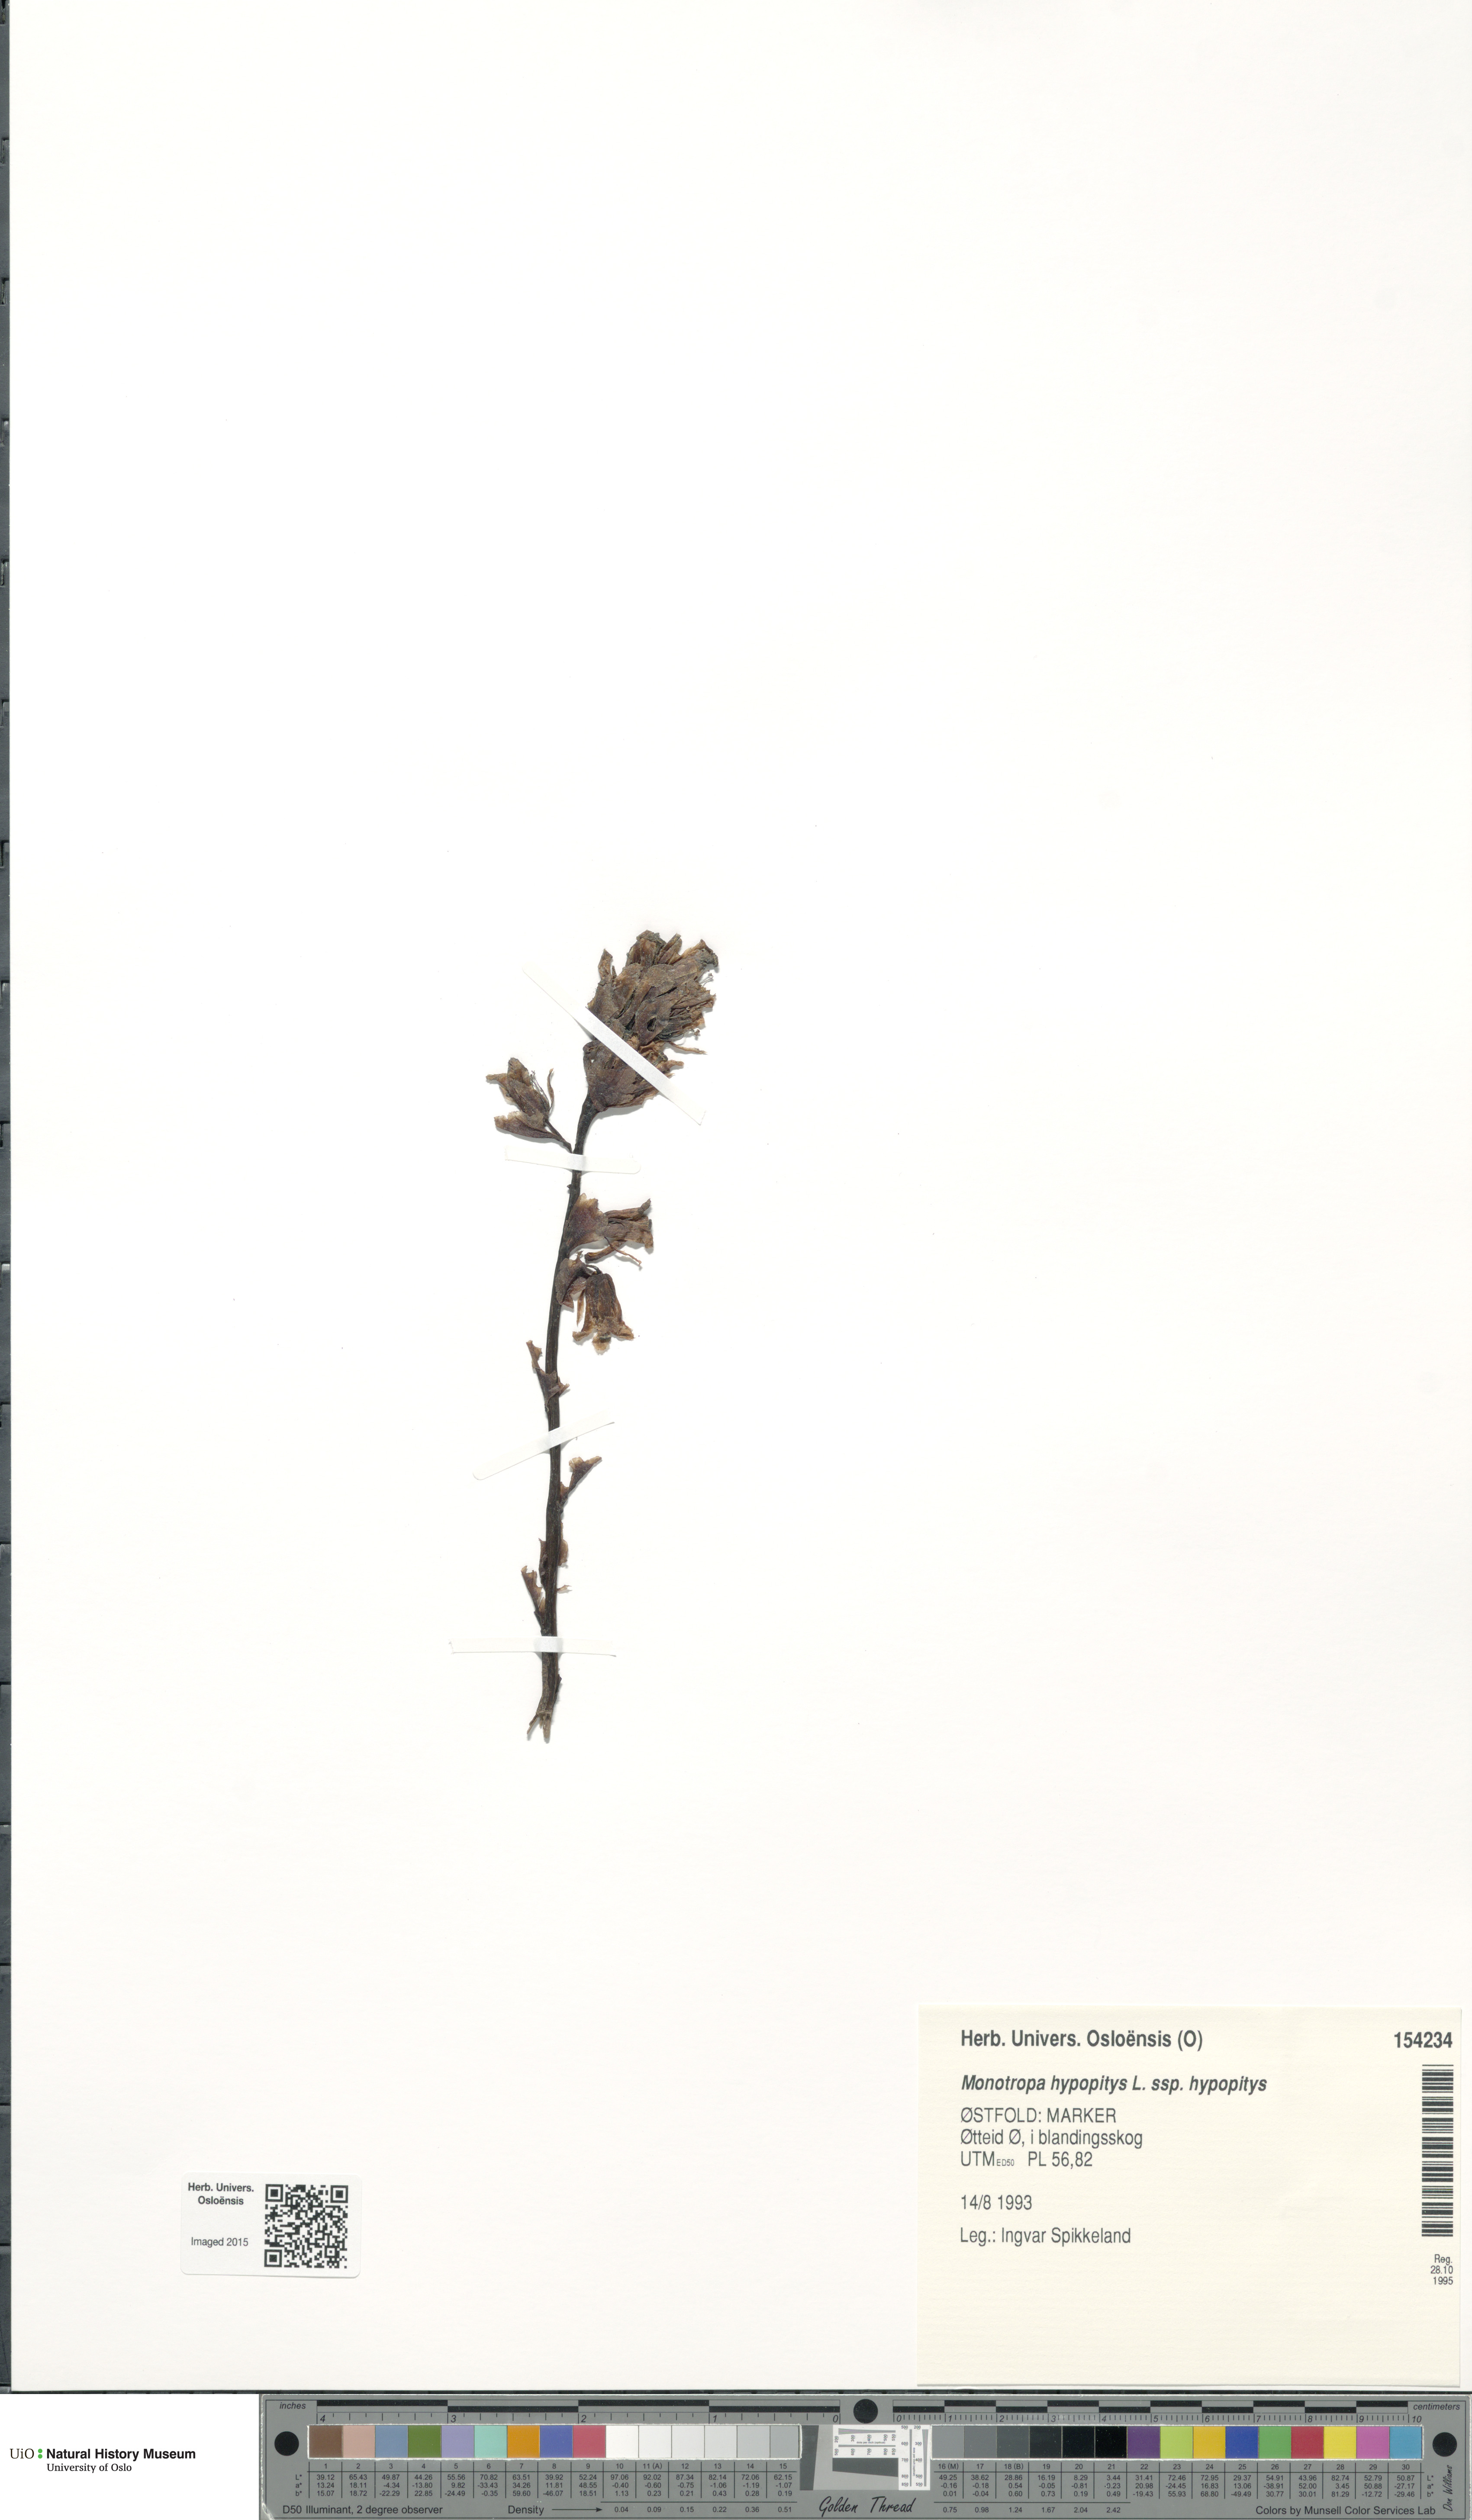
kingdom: Plantae
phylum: Tracheophyta
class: Magnoliopsida
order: Ericales
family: Ericaceae
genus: Hypopitys
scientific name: Hypopitys monotropa
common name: Yellow bird's-nest
